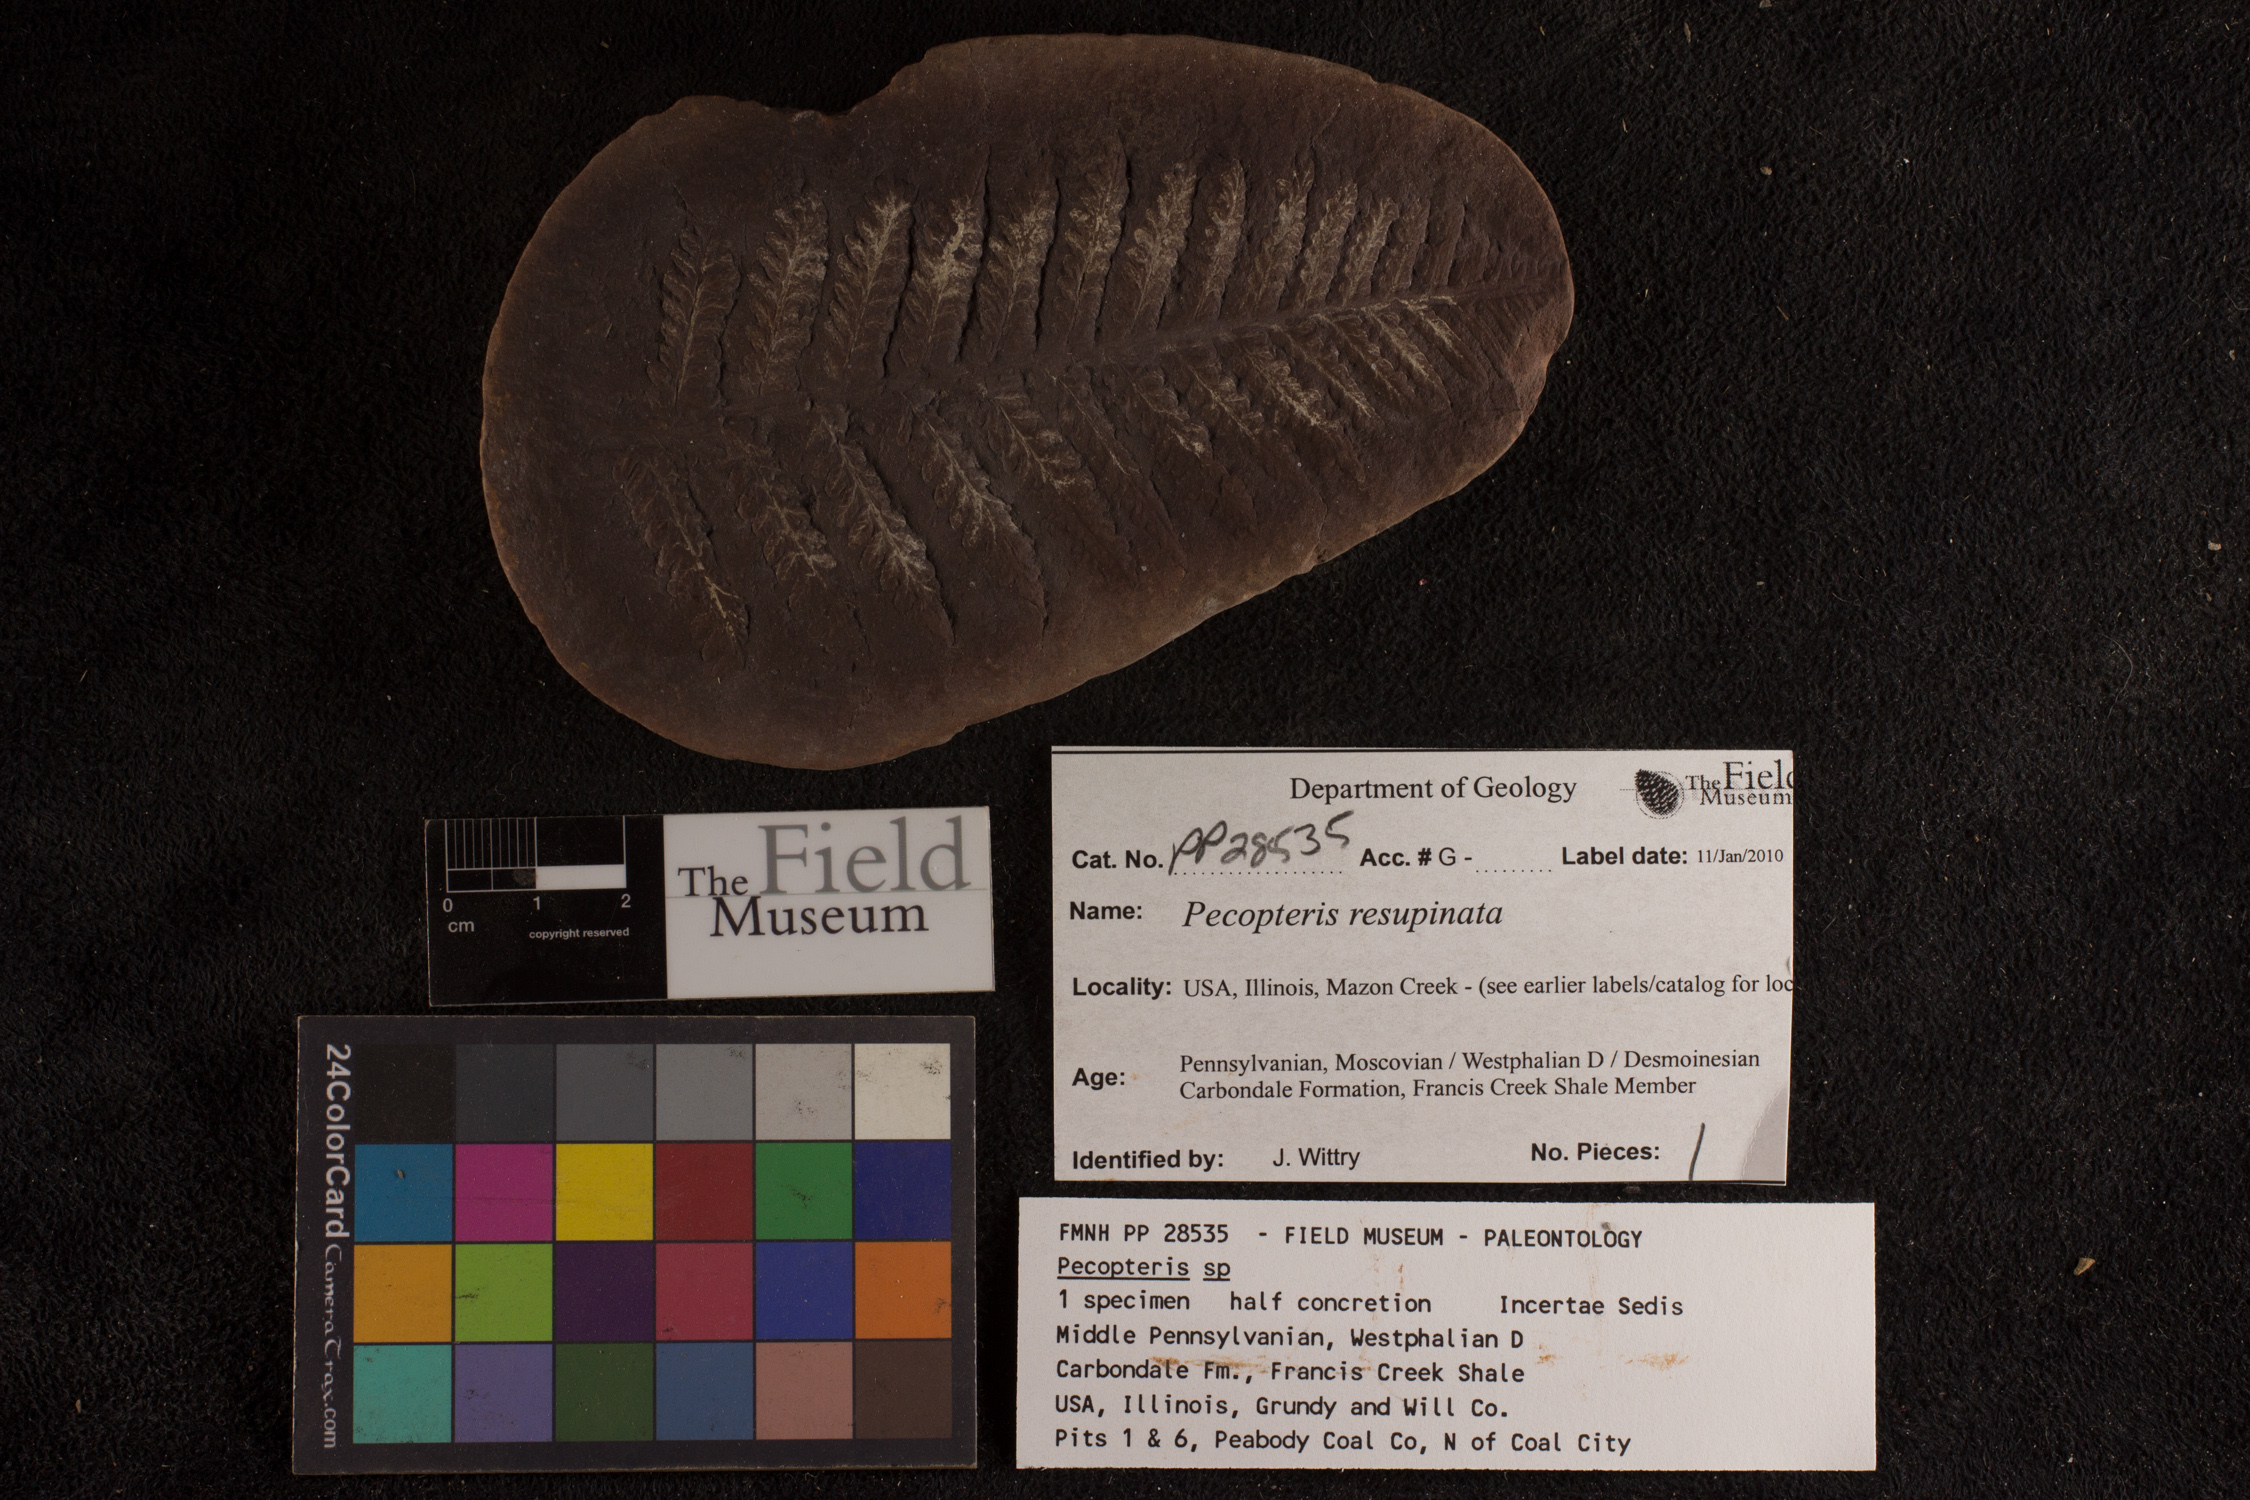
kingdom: Plantae
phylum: Tracheophyta
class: Polypodiopsida
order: Marattiales
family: Asterothecaceae
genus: Pecopteris
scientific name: Pecopteris
